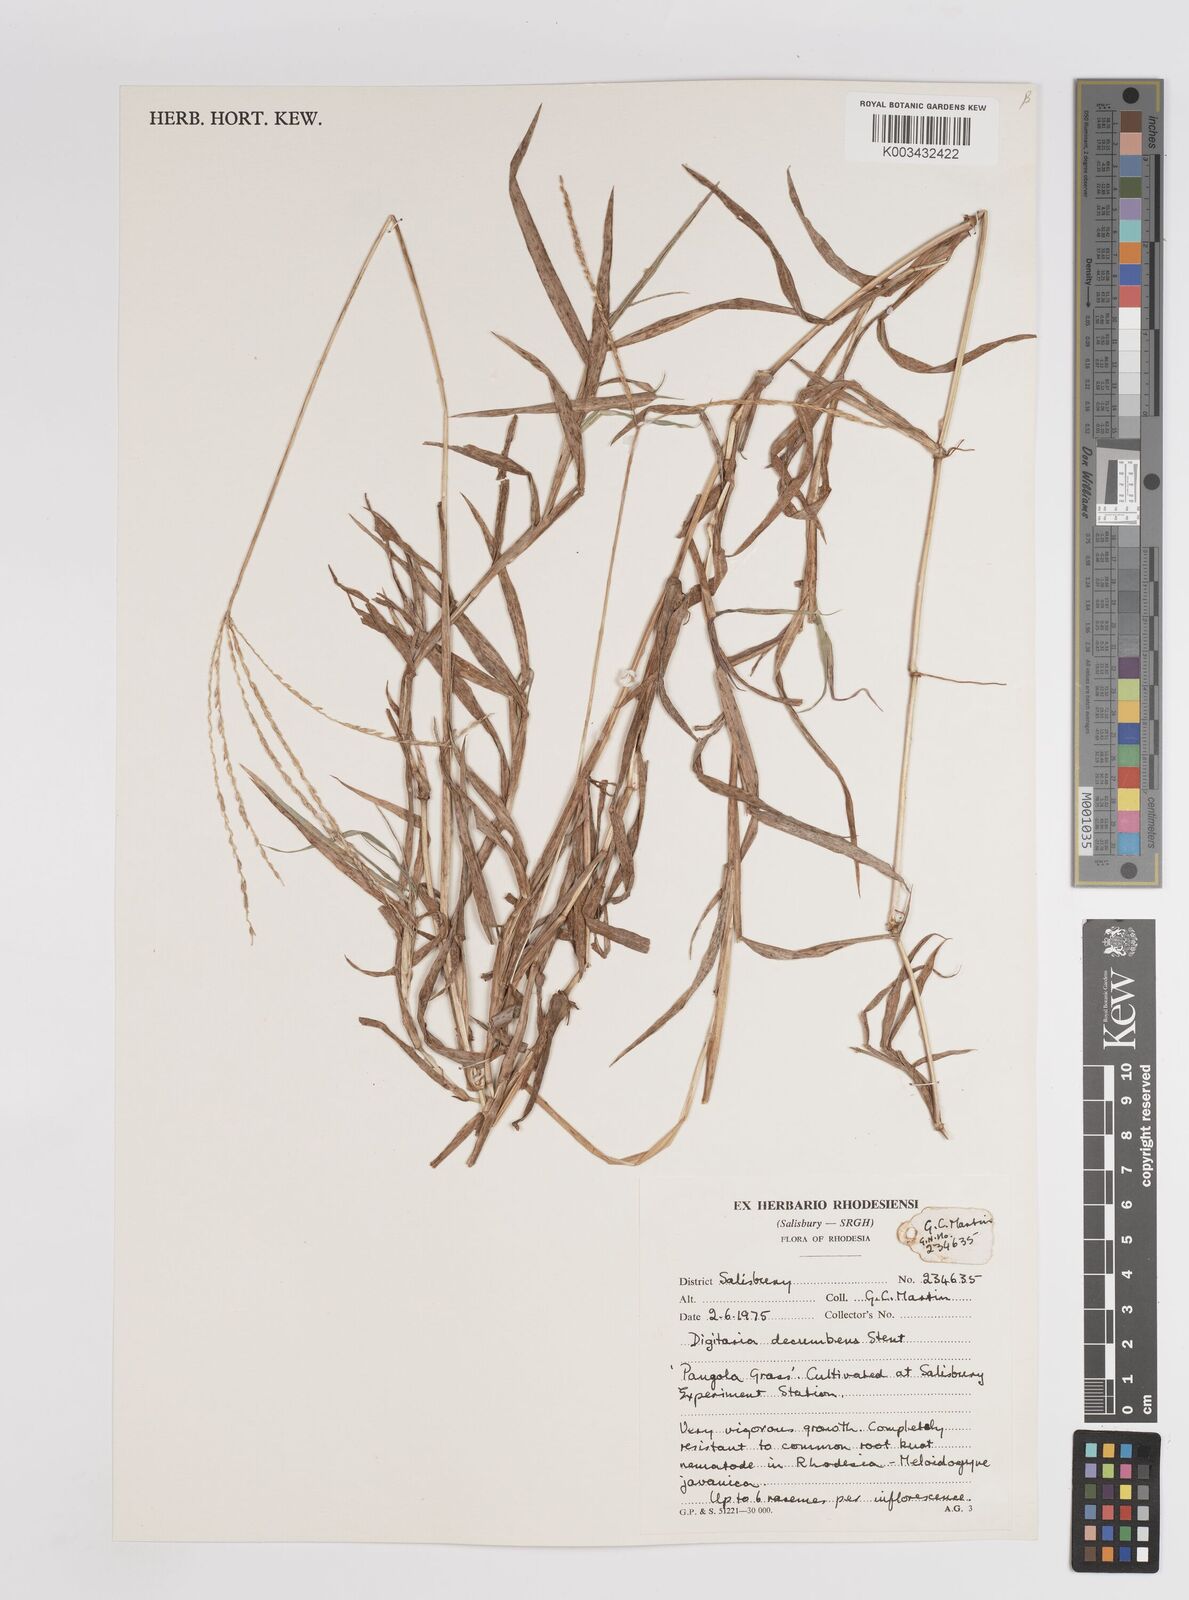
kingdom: Plantae
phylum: Tracheophyta
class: Liliopsida
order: Poales
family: Poaceae
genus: Digitaria
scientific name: Digitaria eriantha
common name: Digitgrass
